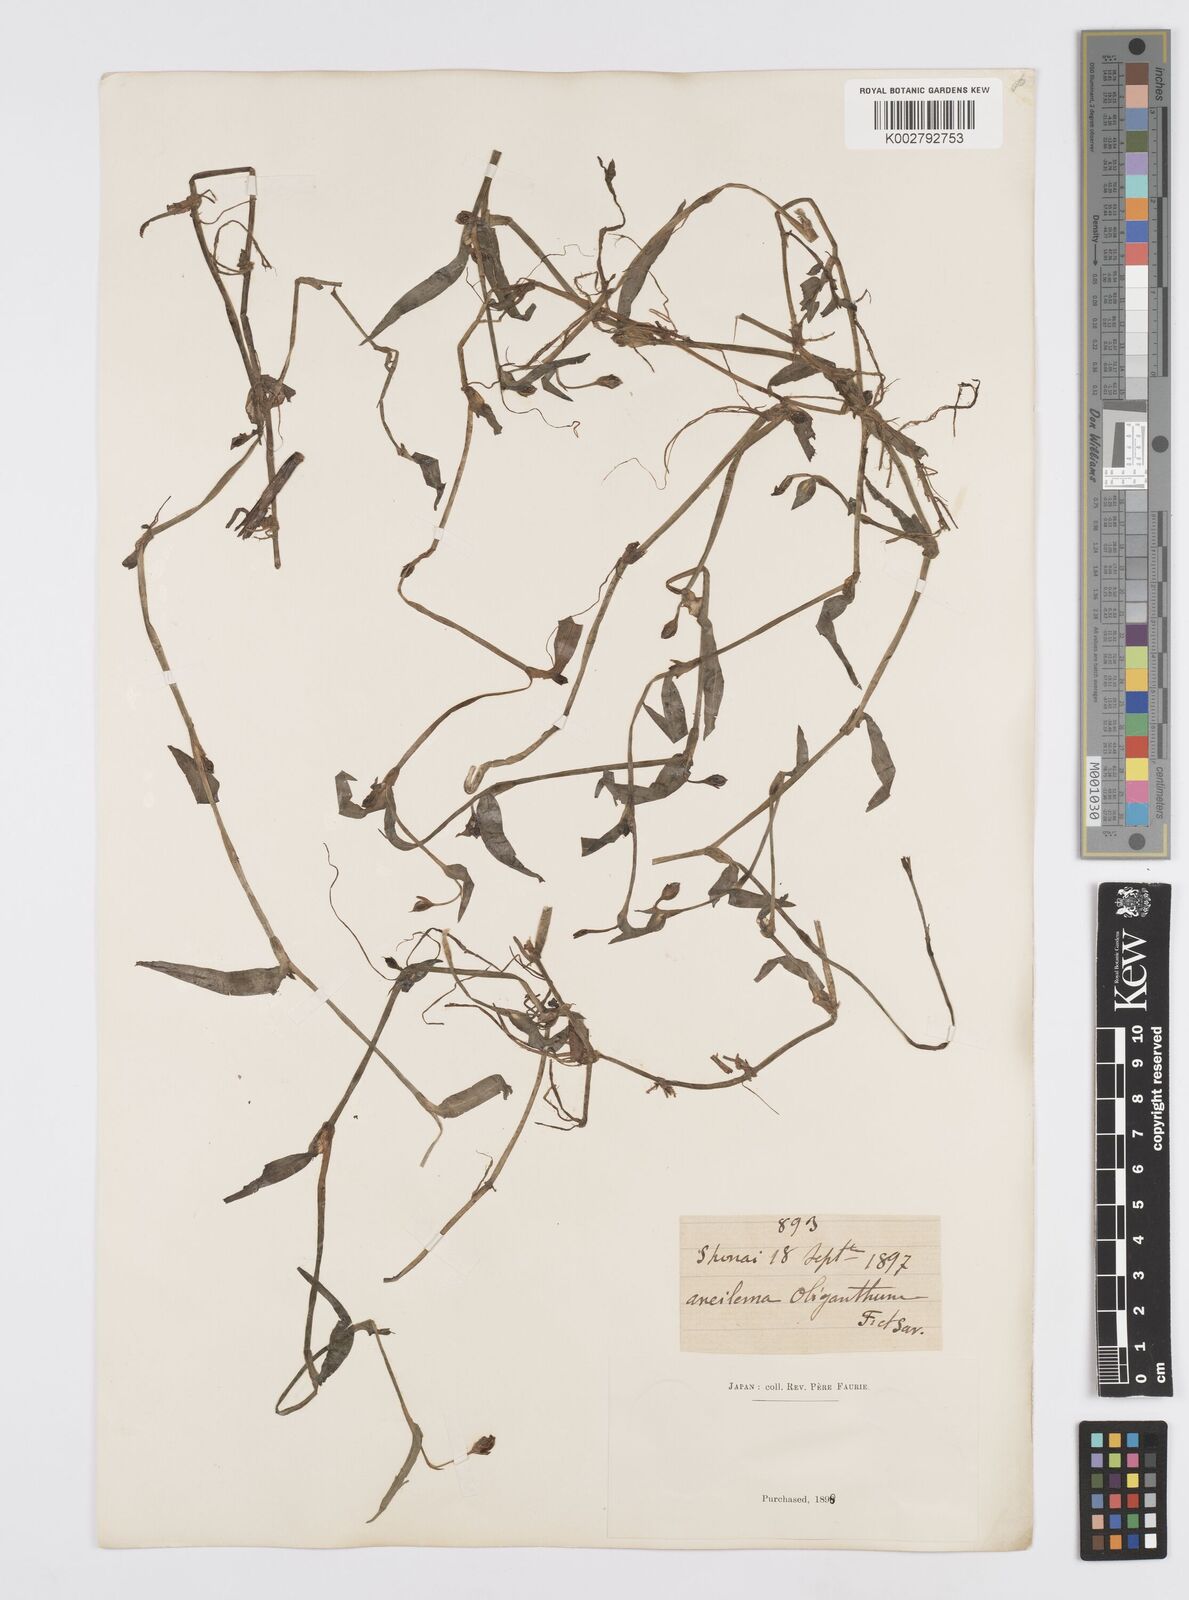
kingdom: Plantae
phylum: Tracheophyta
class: Liliopsida
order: Commelinales
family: Commelinaceae
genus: Murdannia
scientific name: Murdannia keisak
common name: Wartremoving herb
